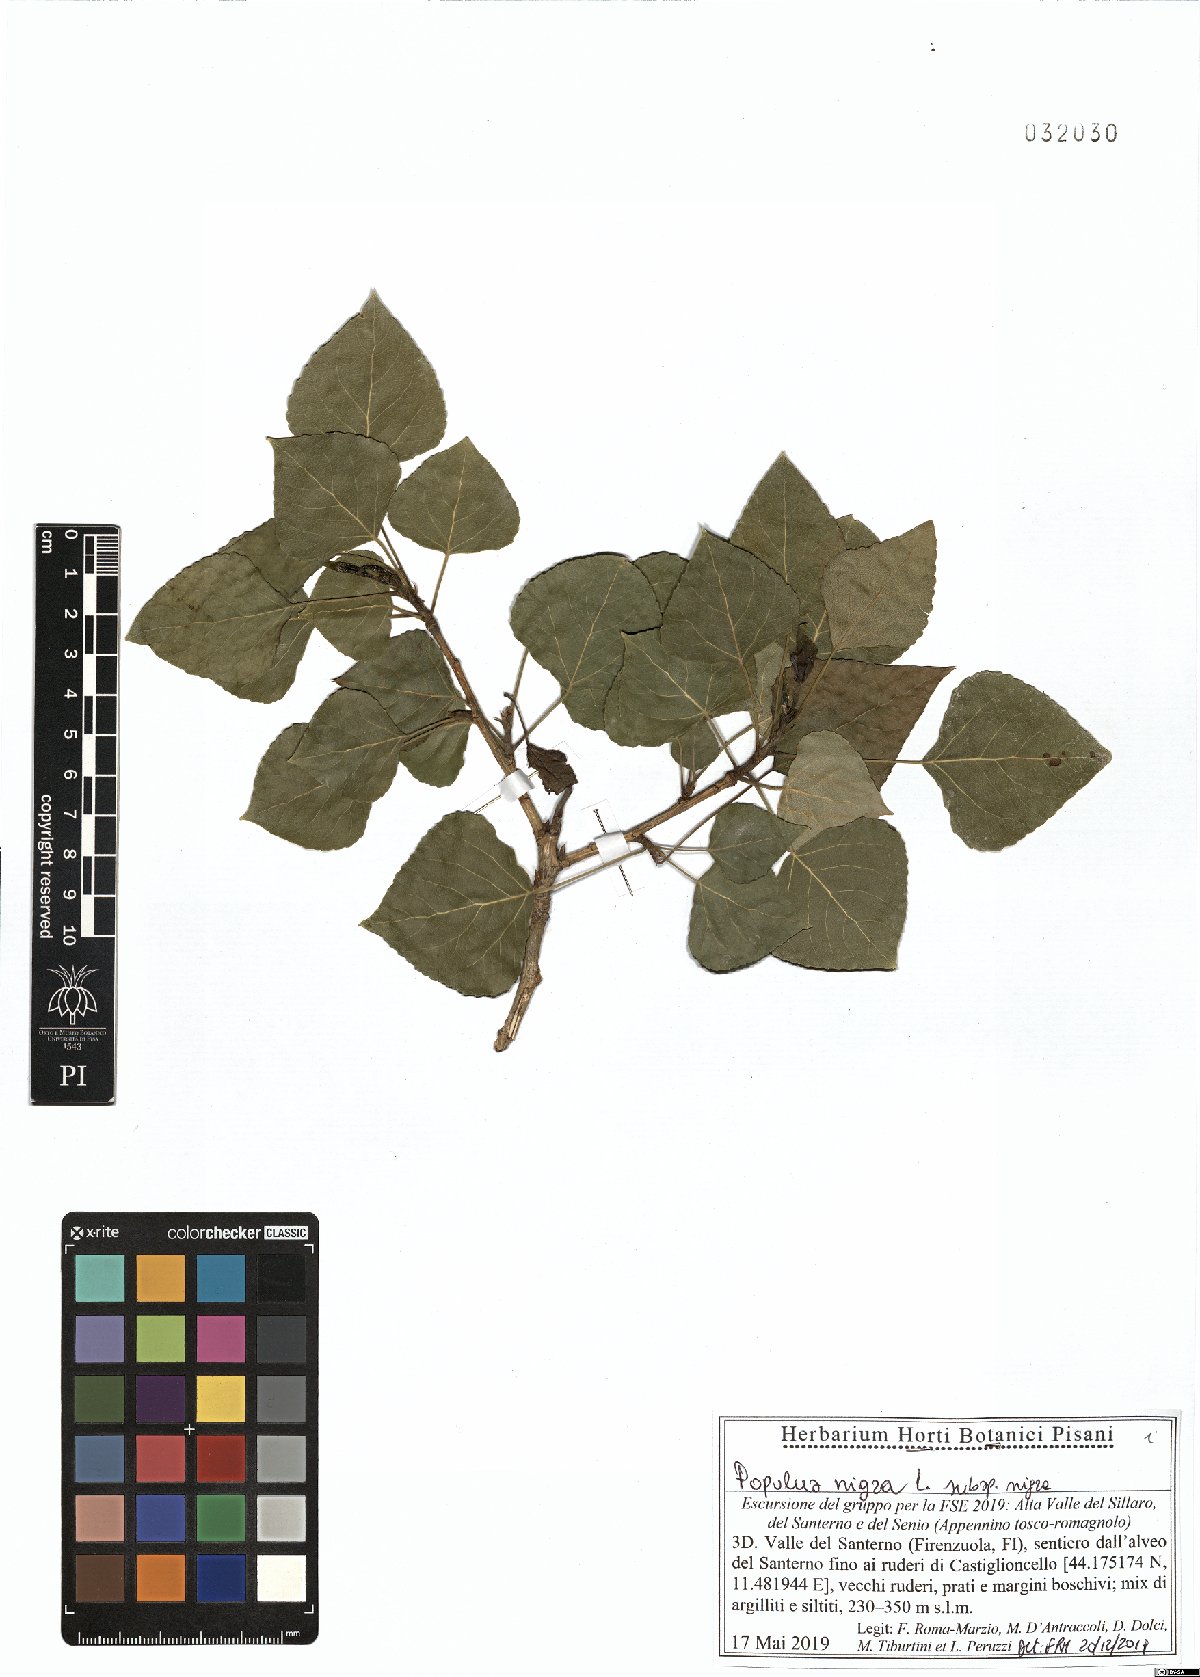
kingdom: Plantae
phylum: Tracheophyta
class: Magnoliopsida
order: Malpighiales
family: Salicaceae
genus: Populus
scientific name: Populus nigra
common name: Black poplar
